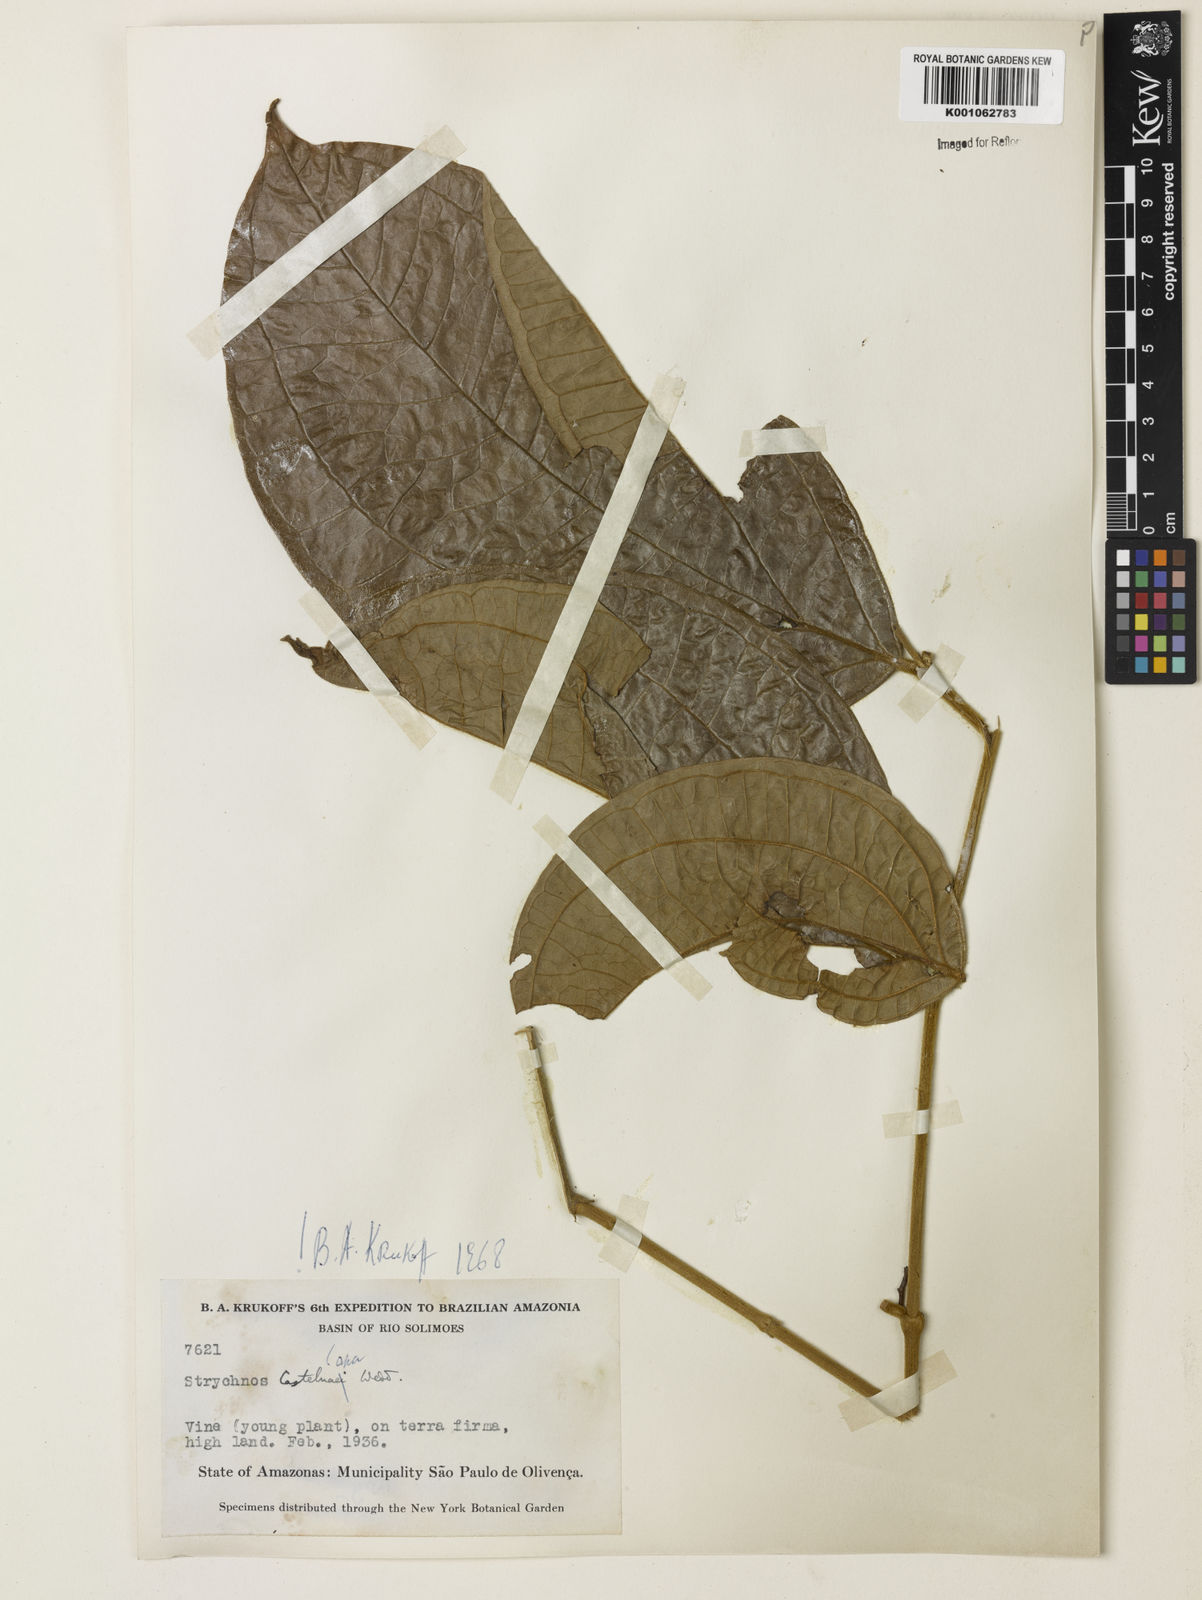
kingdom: Plantae
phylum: Tracheophyta
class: Magnoliopsida
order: Gentianales
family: Loganiaceae
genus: Strychnos
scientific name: Strychnos
